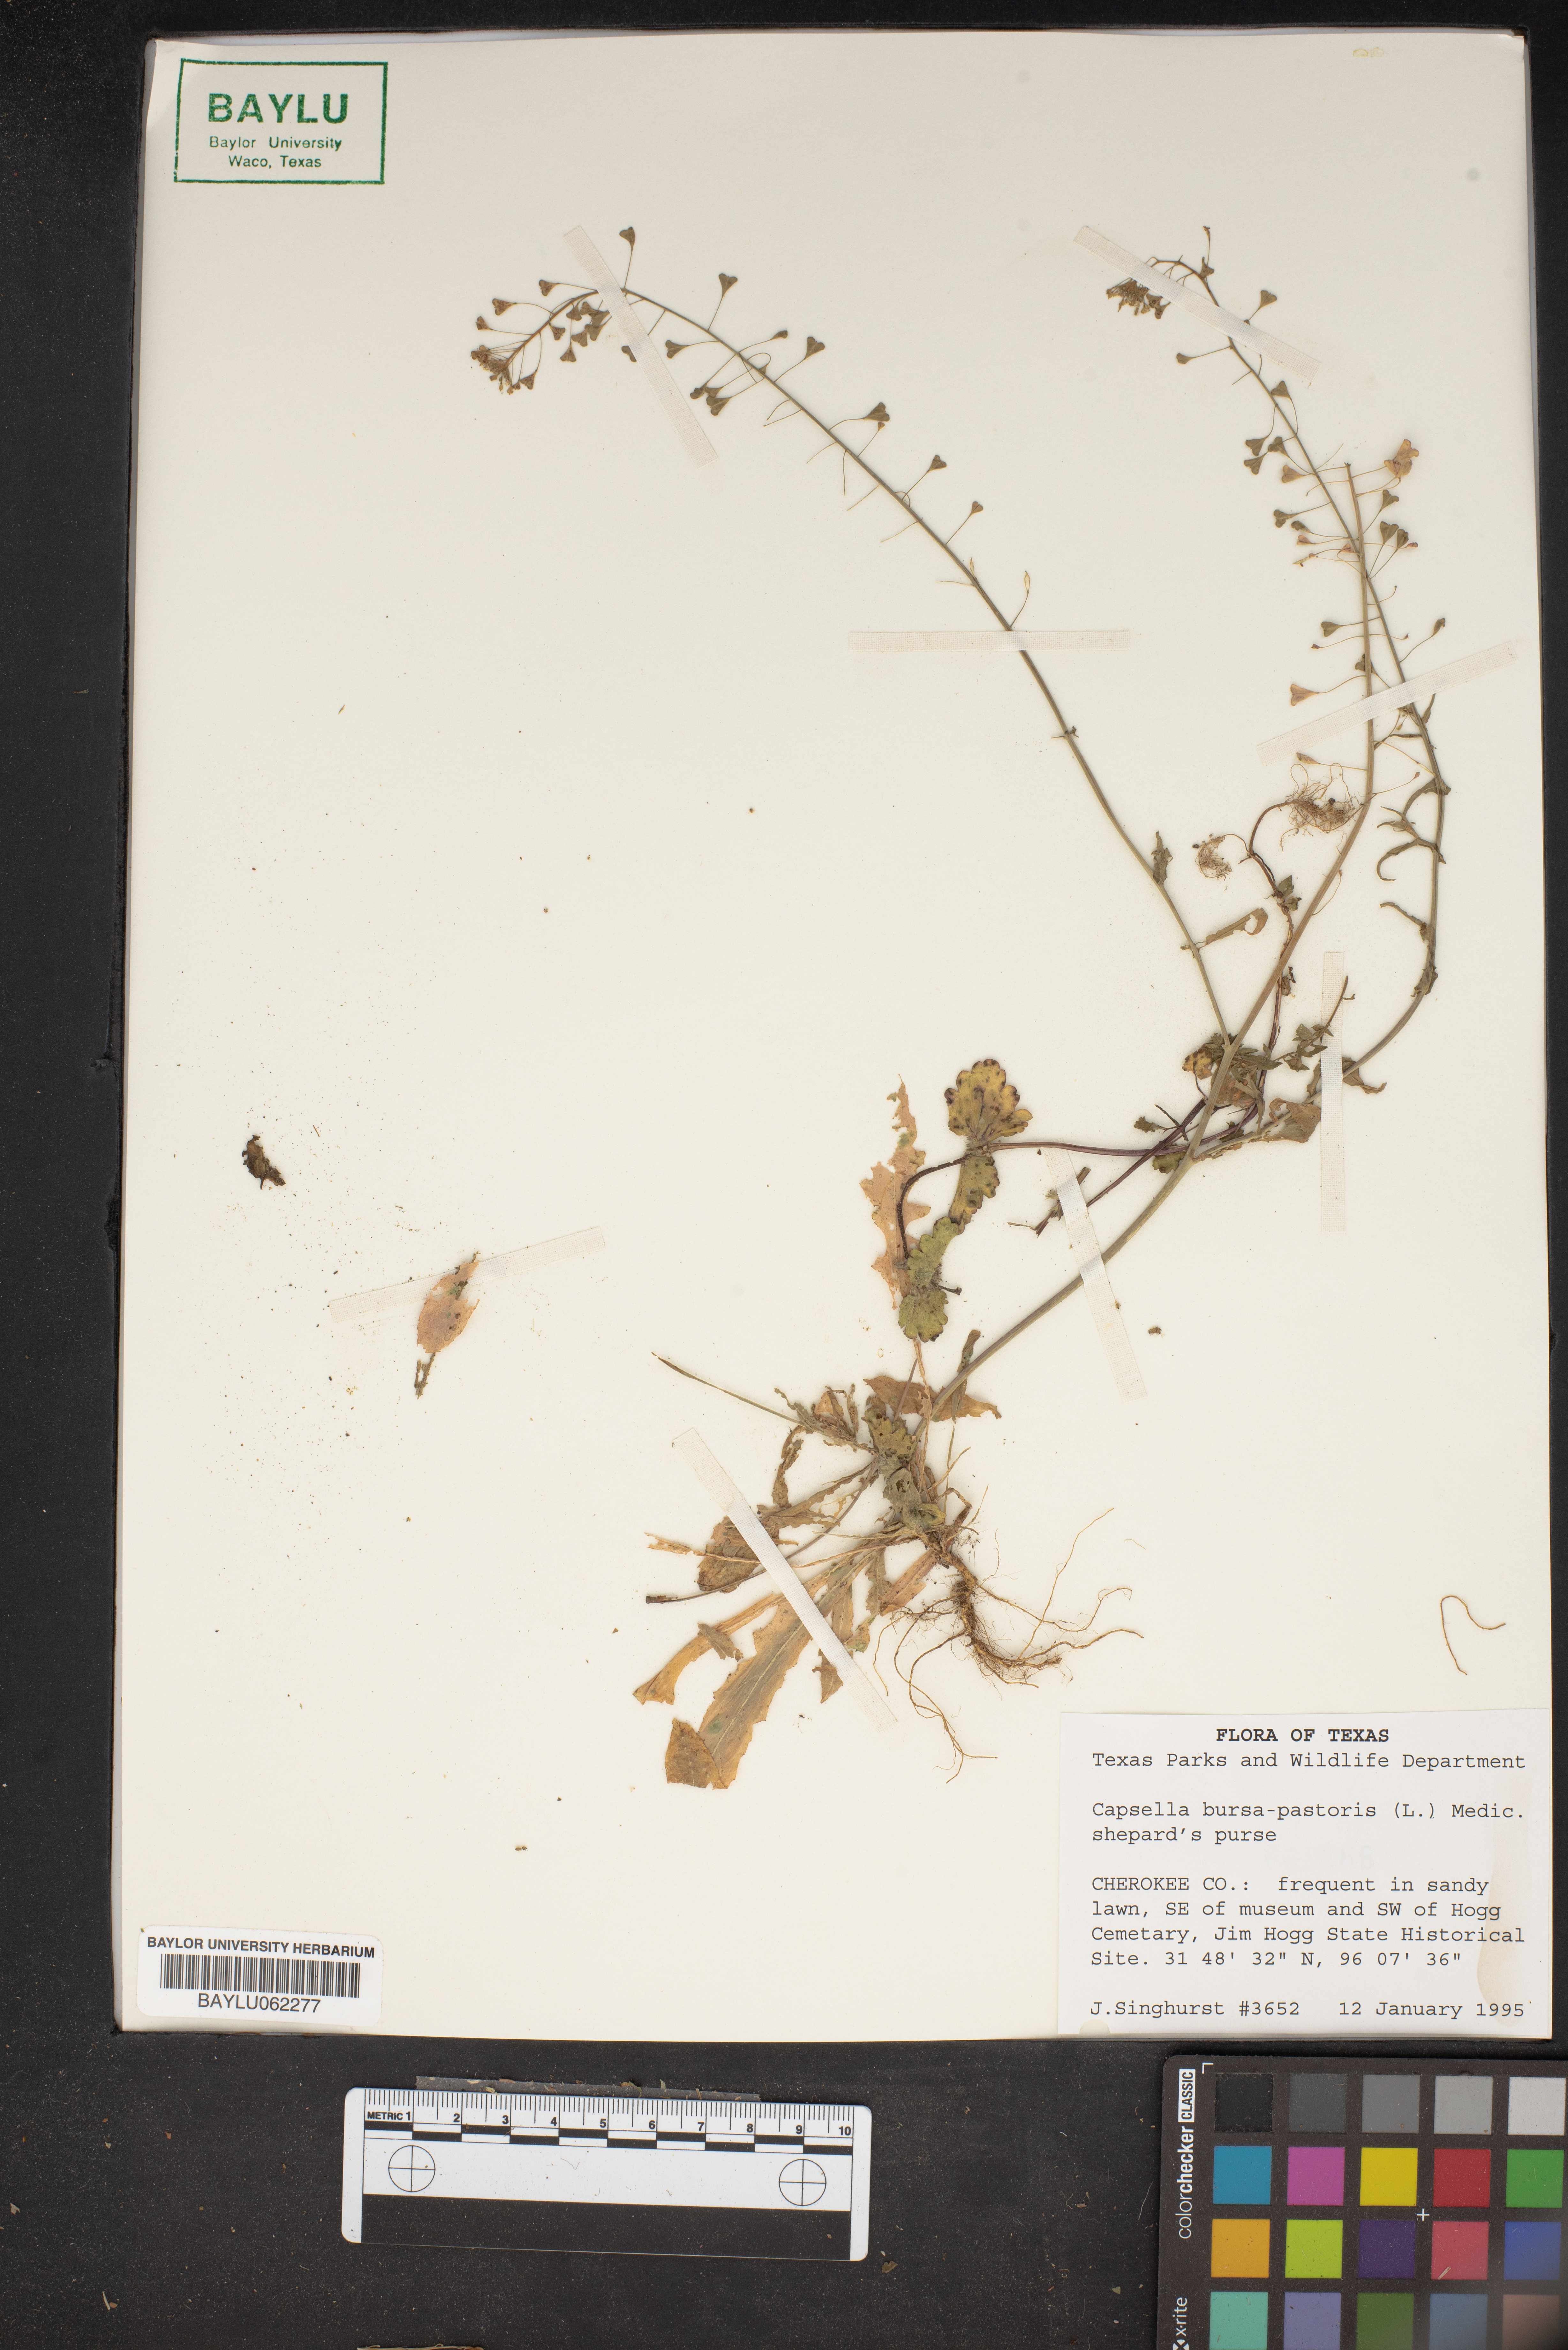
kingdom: Plantae
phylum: Tracheophyta
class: Magnoliopsida
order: Brassicales
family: Brassicaceae
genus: Capsella
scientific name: Capsella bursa-pastoris
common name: Shepherd's purse
